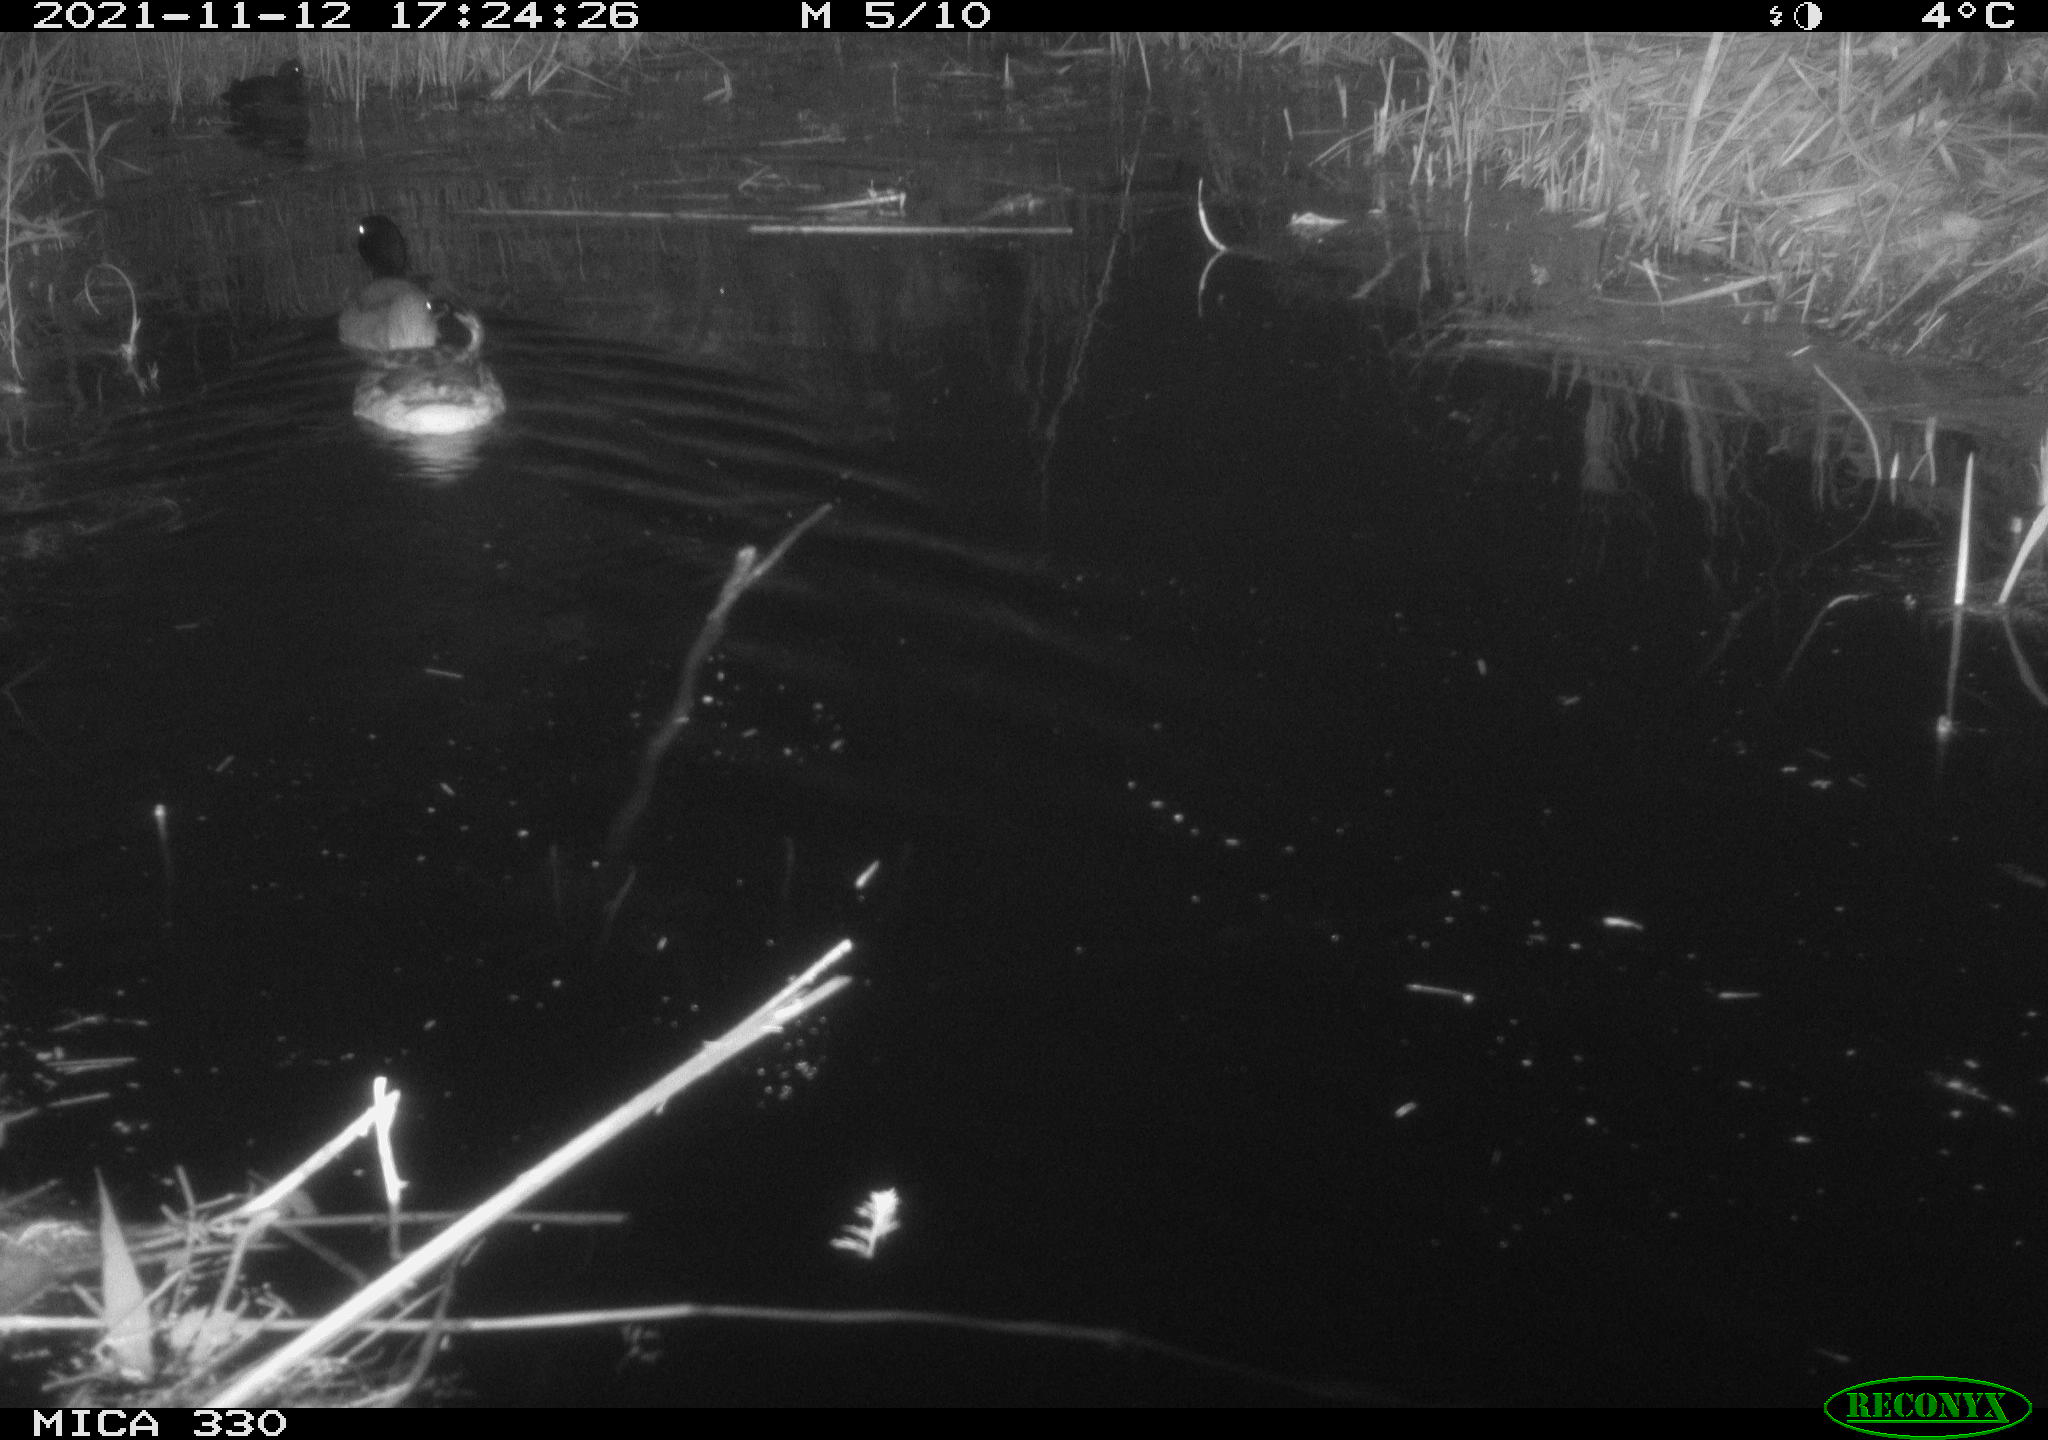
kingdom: Animalia
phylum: Chordata
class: Aves
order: Anseriformes
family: Anatidae
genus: Anas
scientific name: Anas platyrhynchos
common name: Mallard
